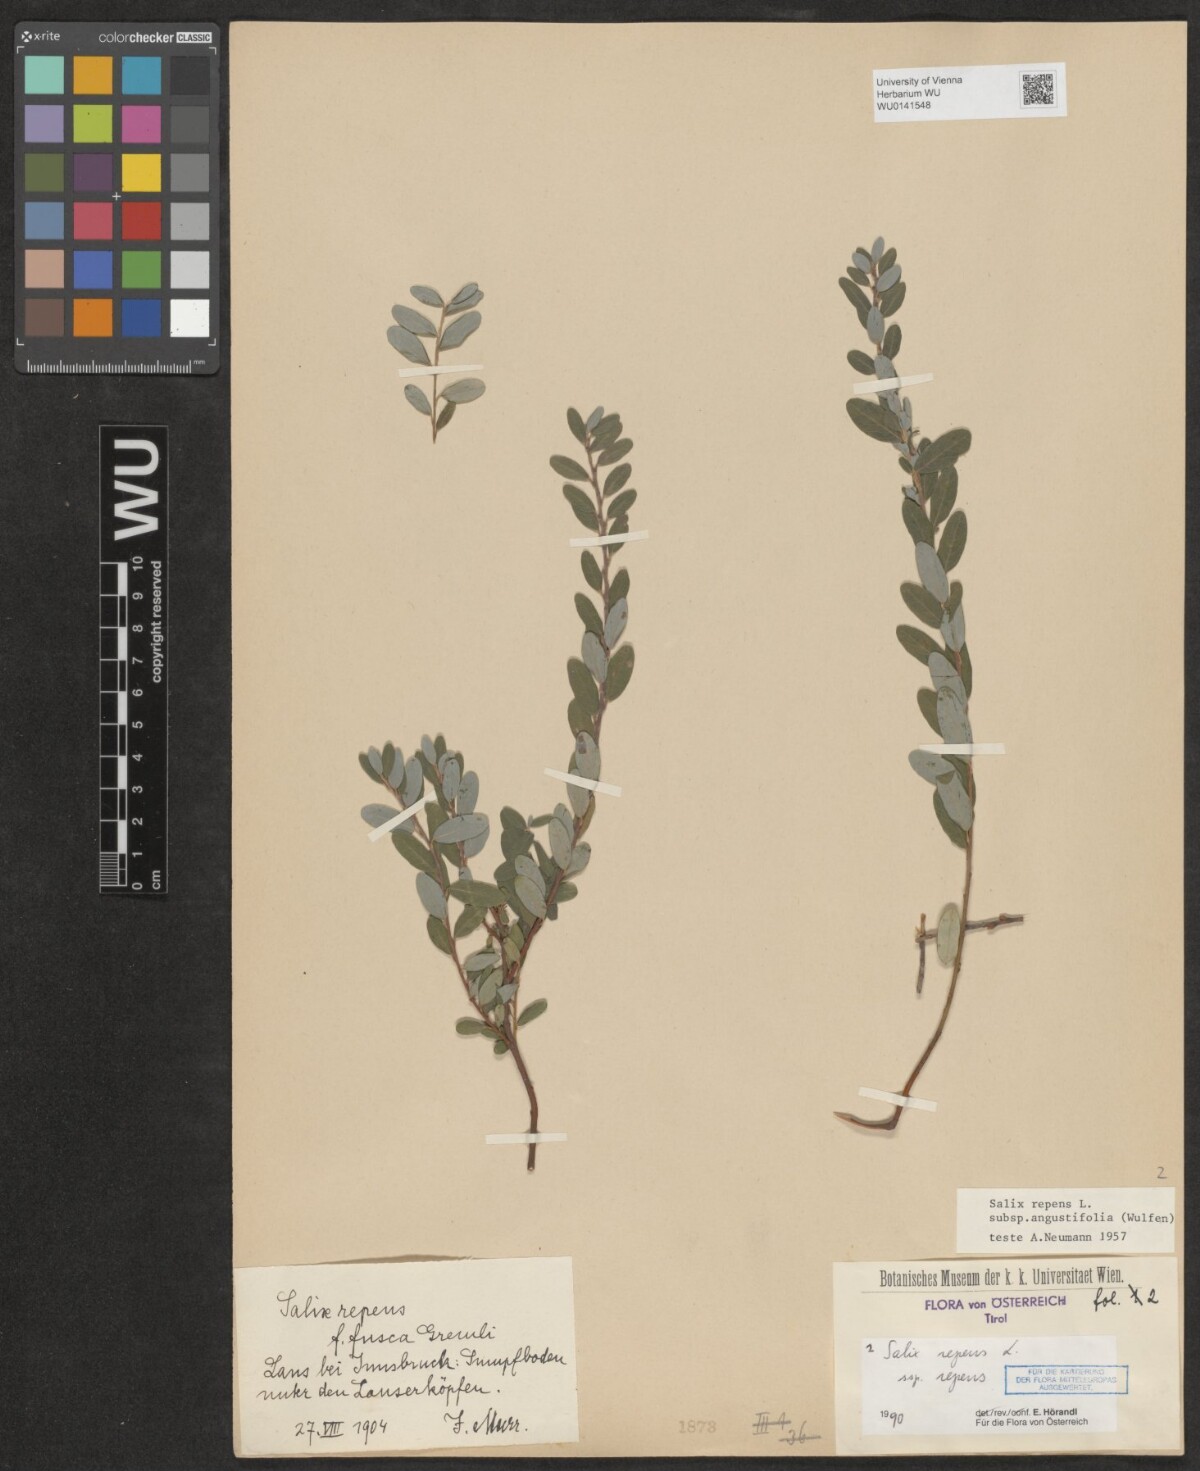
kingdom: Plantae
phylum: Tracheophyta
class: Magnoliopsida
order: Malpighiales
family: Salicaceae
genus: Salix
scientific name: Salix repens
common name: Creeping willow
